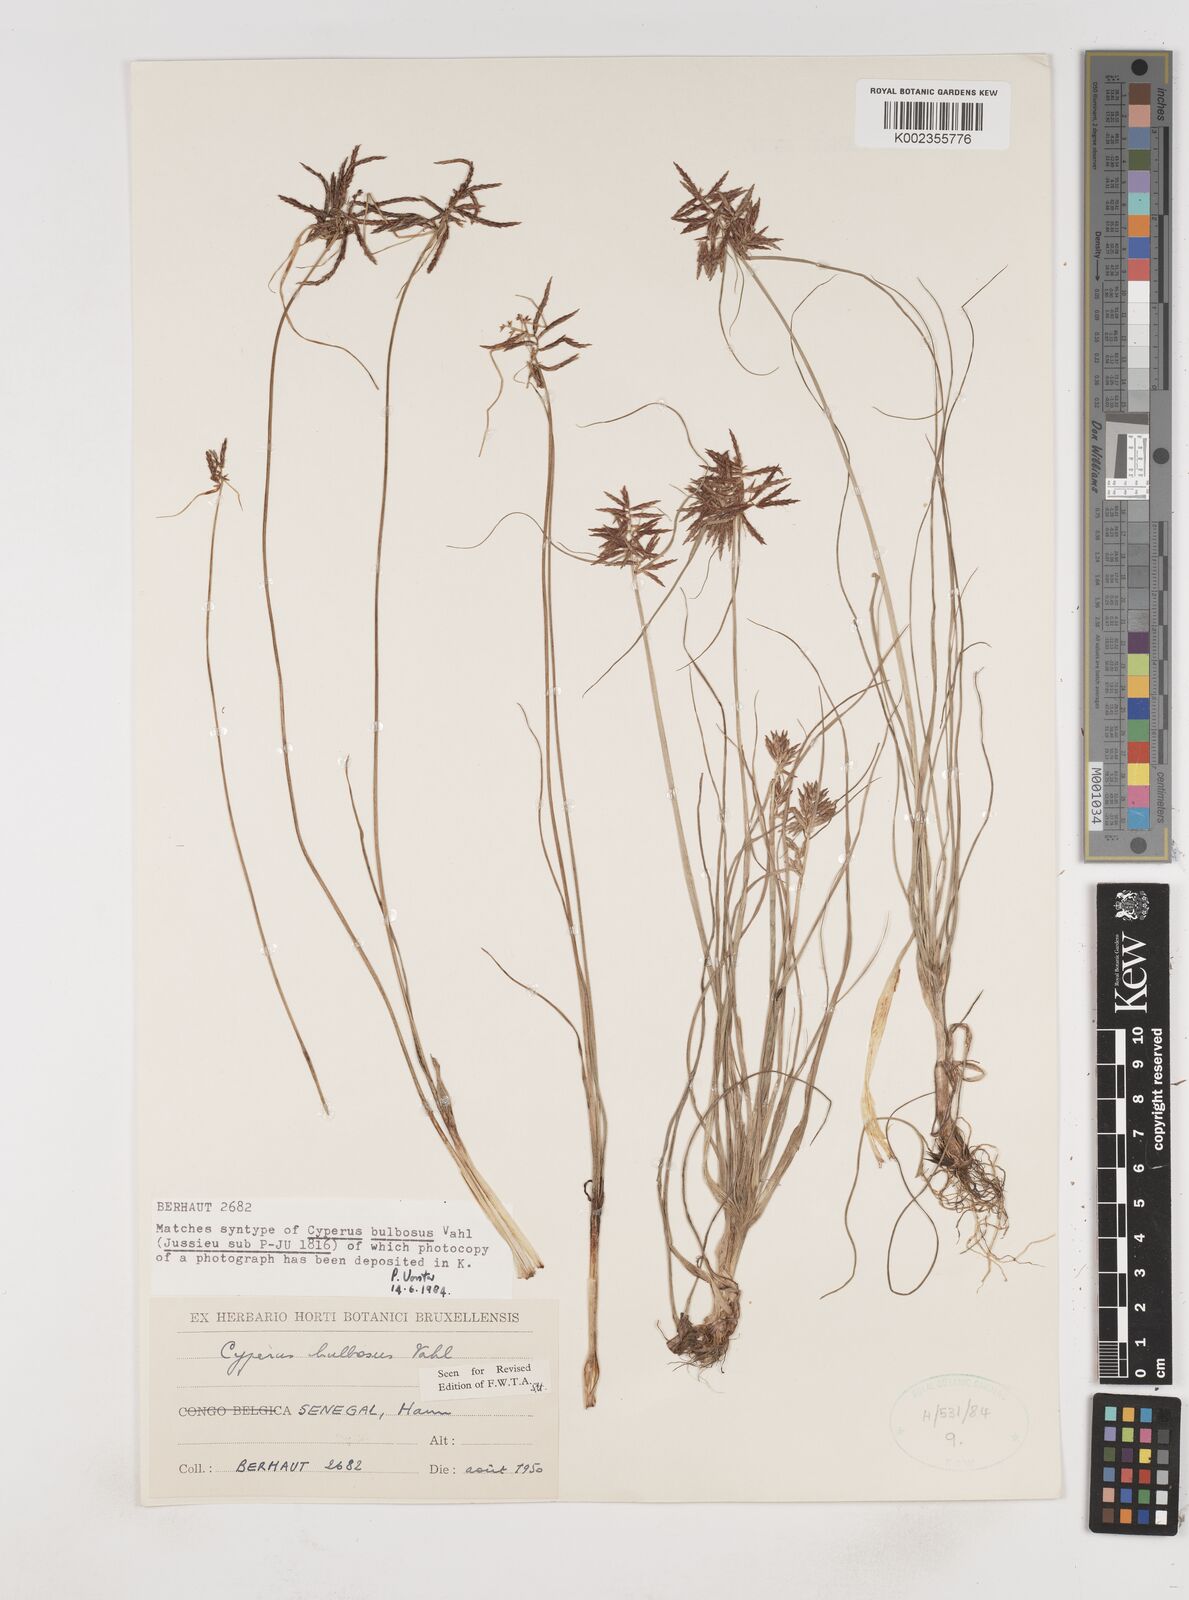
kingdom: Plantae
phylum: Tracheophyta
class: Liliopsida
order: Poales
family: Cyperaceae
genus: Cyperus
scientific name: Cyperus bulbosus
